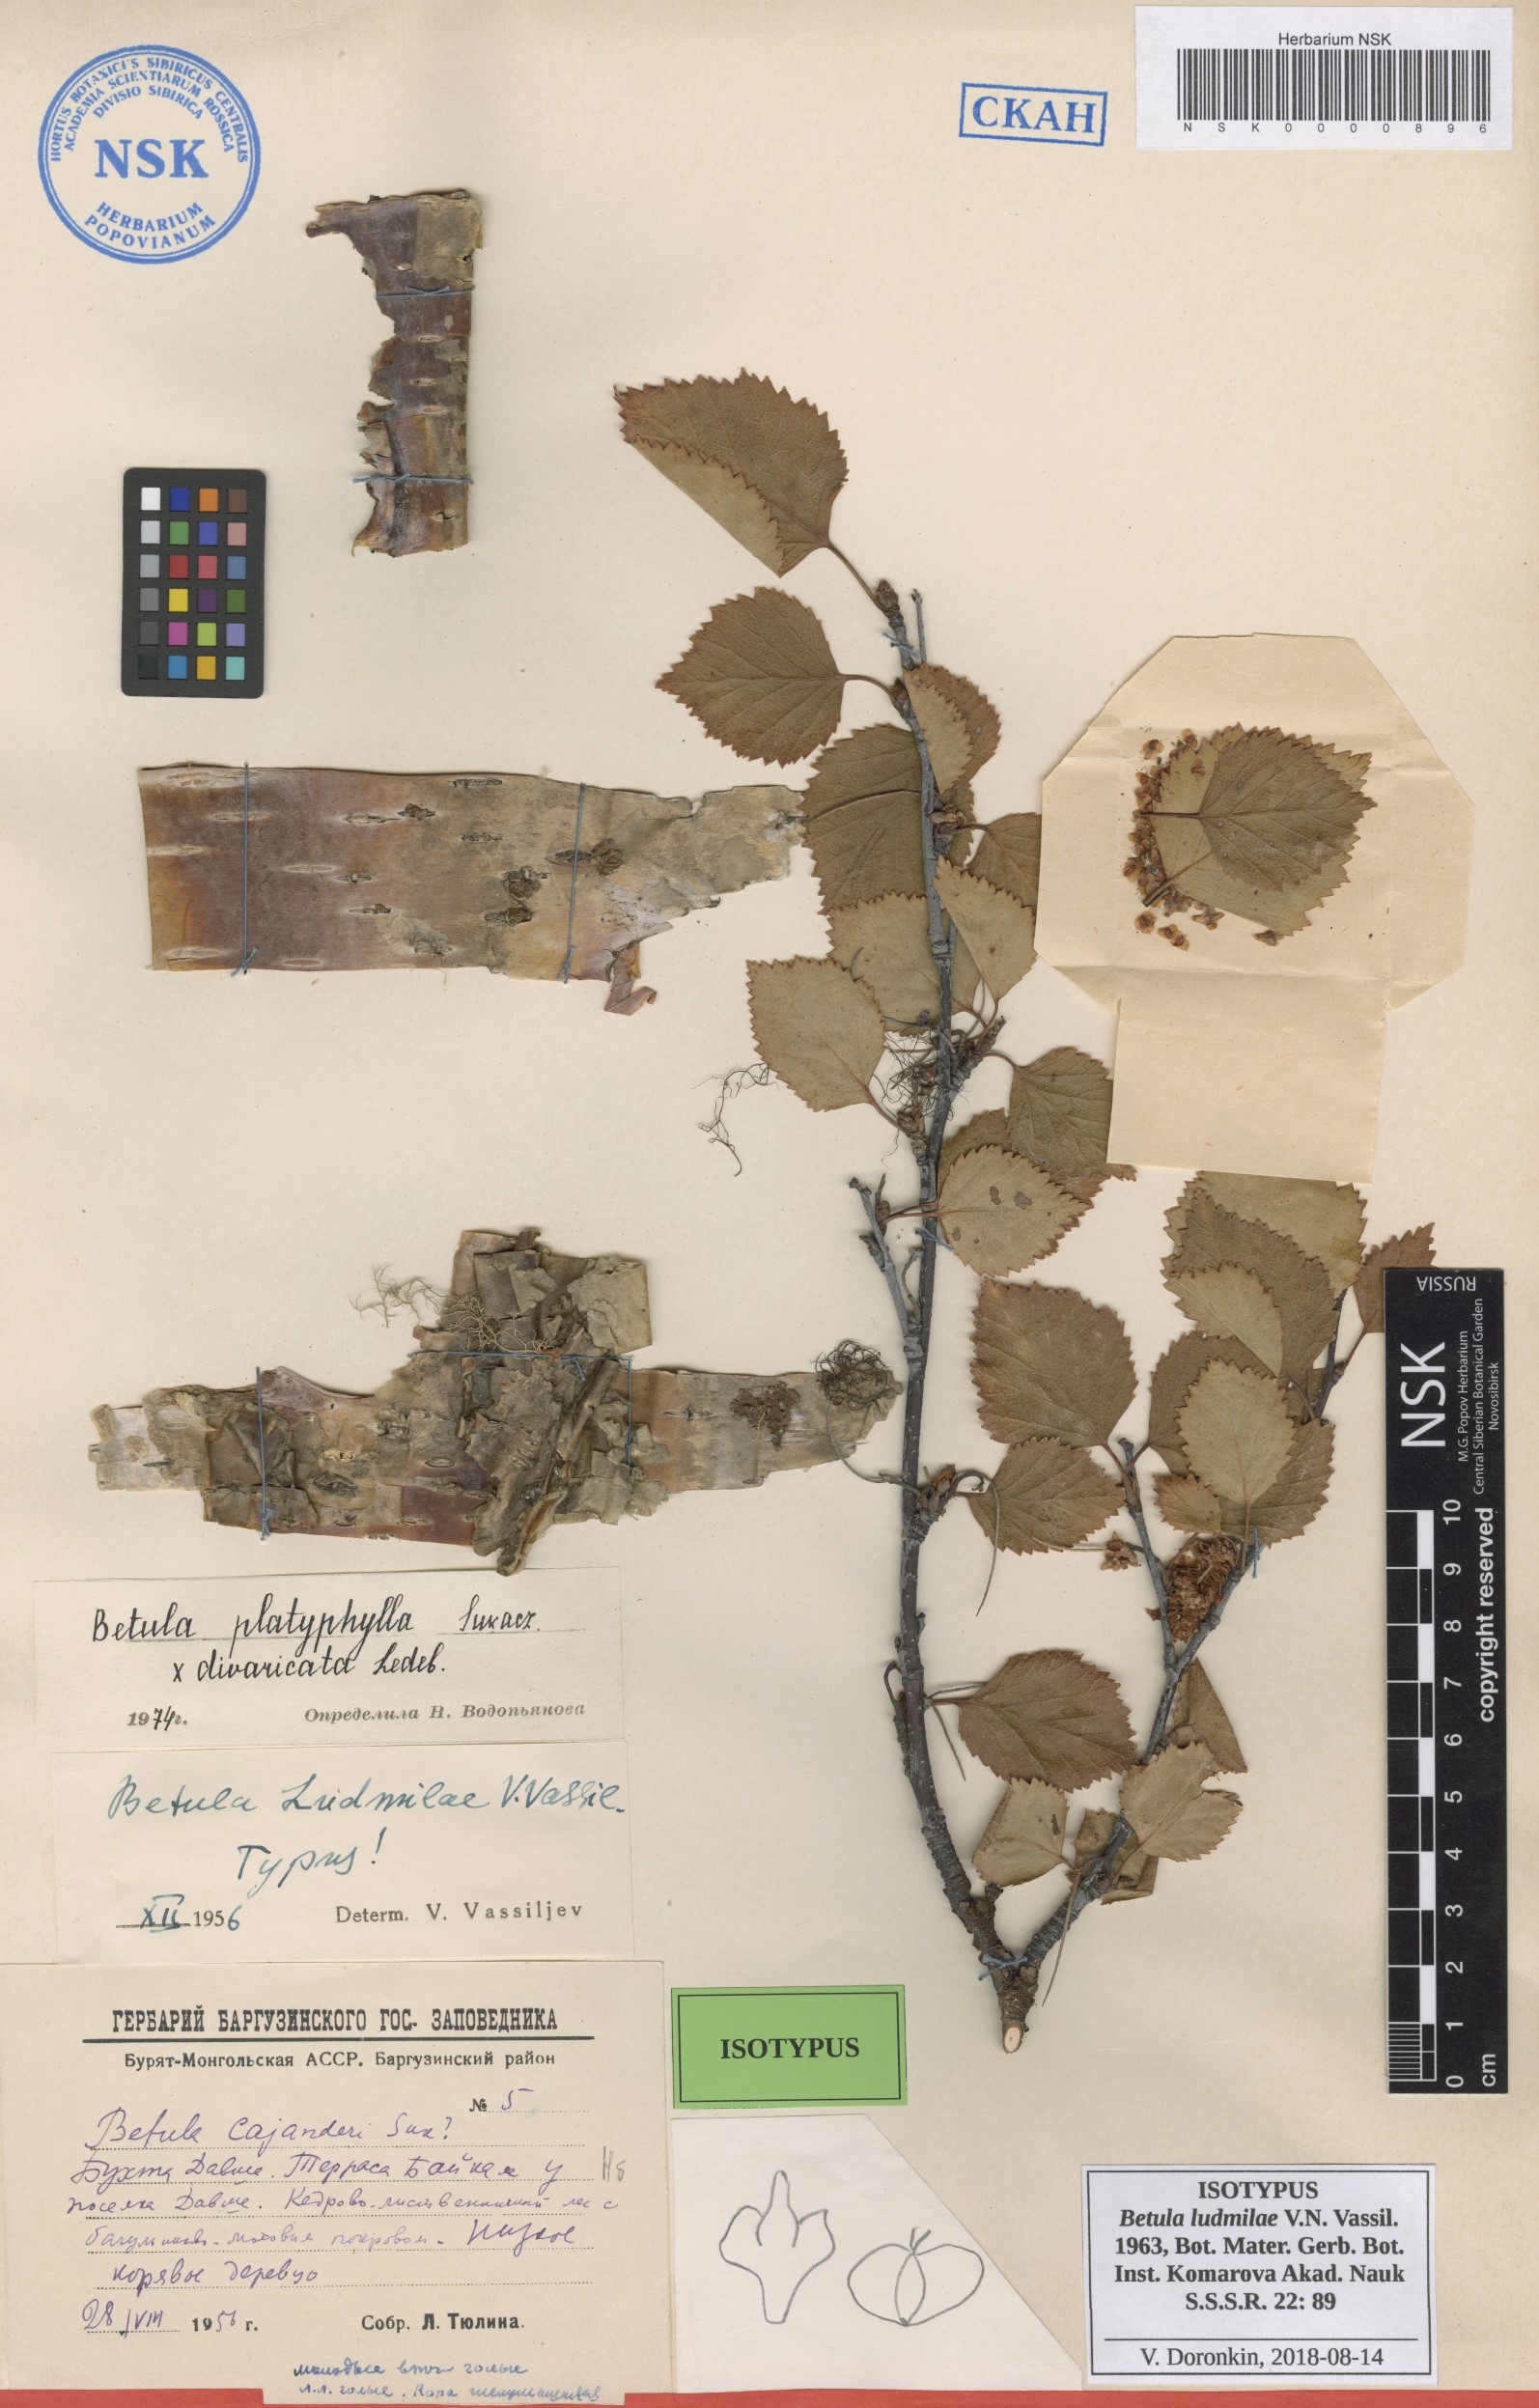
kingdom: Plantae
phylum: Tracheophyta
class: Magnoliopsida
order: Fagales
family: Betulaceae
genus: Betula
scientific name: Betula pendula
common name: Silver birch
